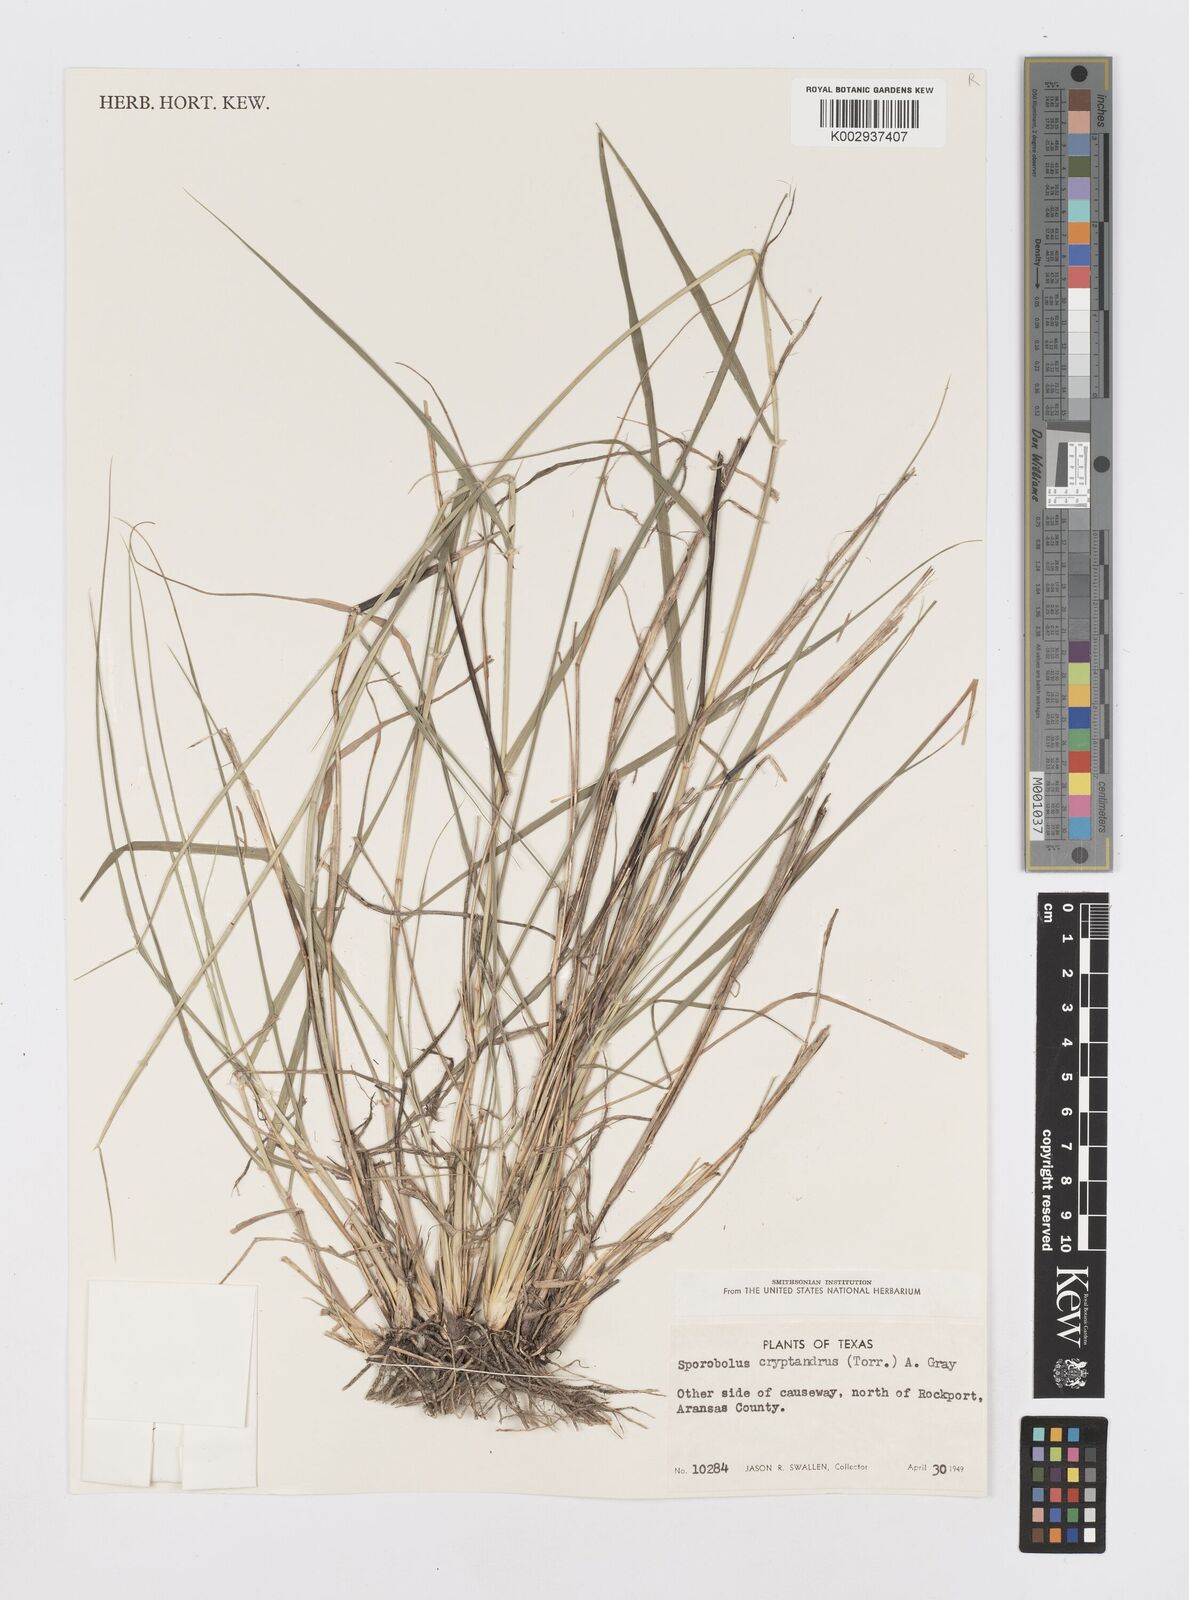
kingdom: Plantae
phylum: Tracheophyta
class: Liliopsida
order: Poales
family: Poaceae
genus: Sporobolus
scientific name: Sporobolus cryptandrus
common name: Sand dropseed
